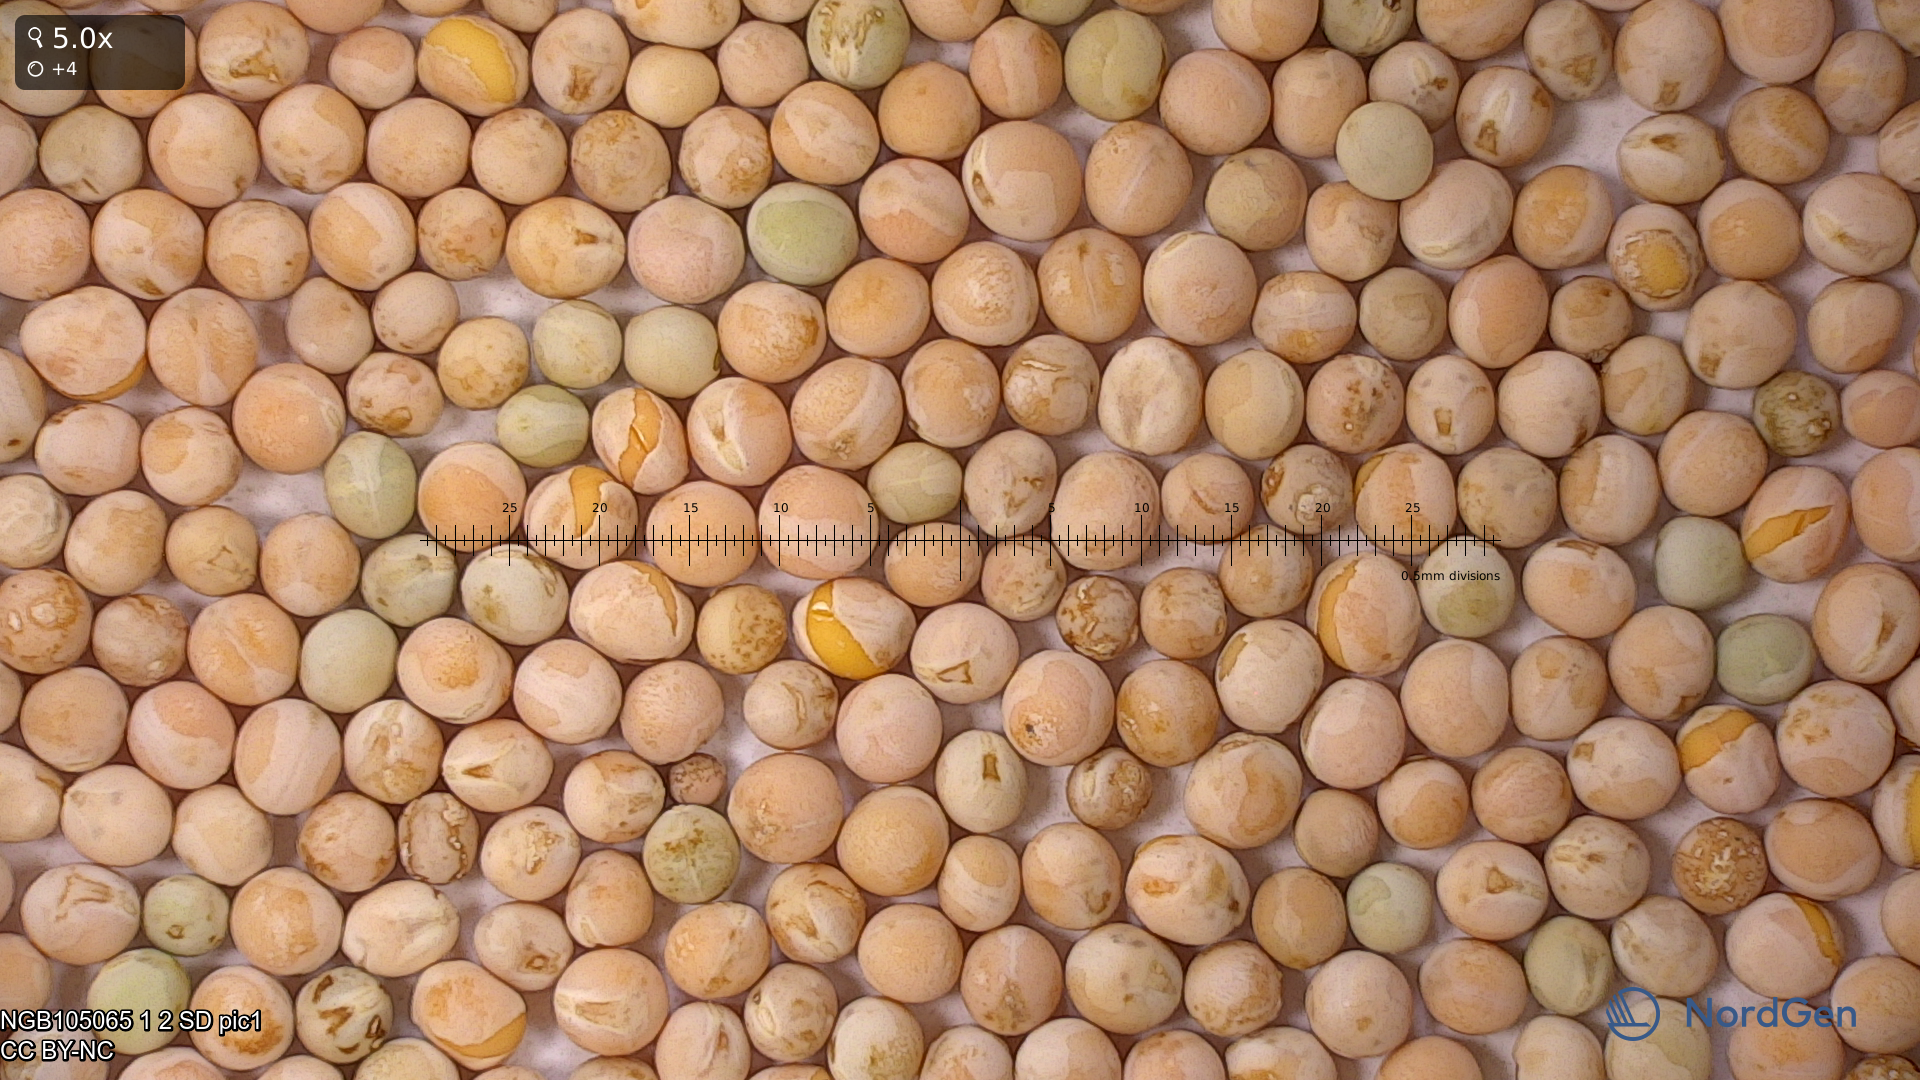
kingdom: Plantae
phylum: Tracheophyta
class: Magnoliopsida
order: Fabales
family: Fabaceae
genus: Lathyrus
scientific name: Lathyrus oleraceus
